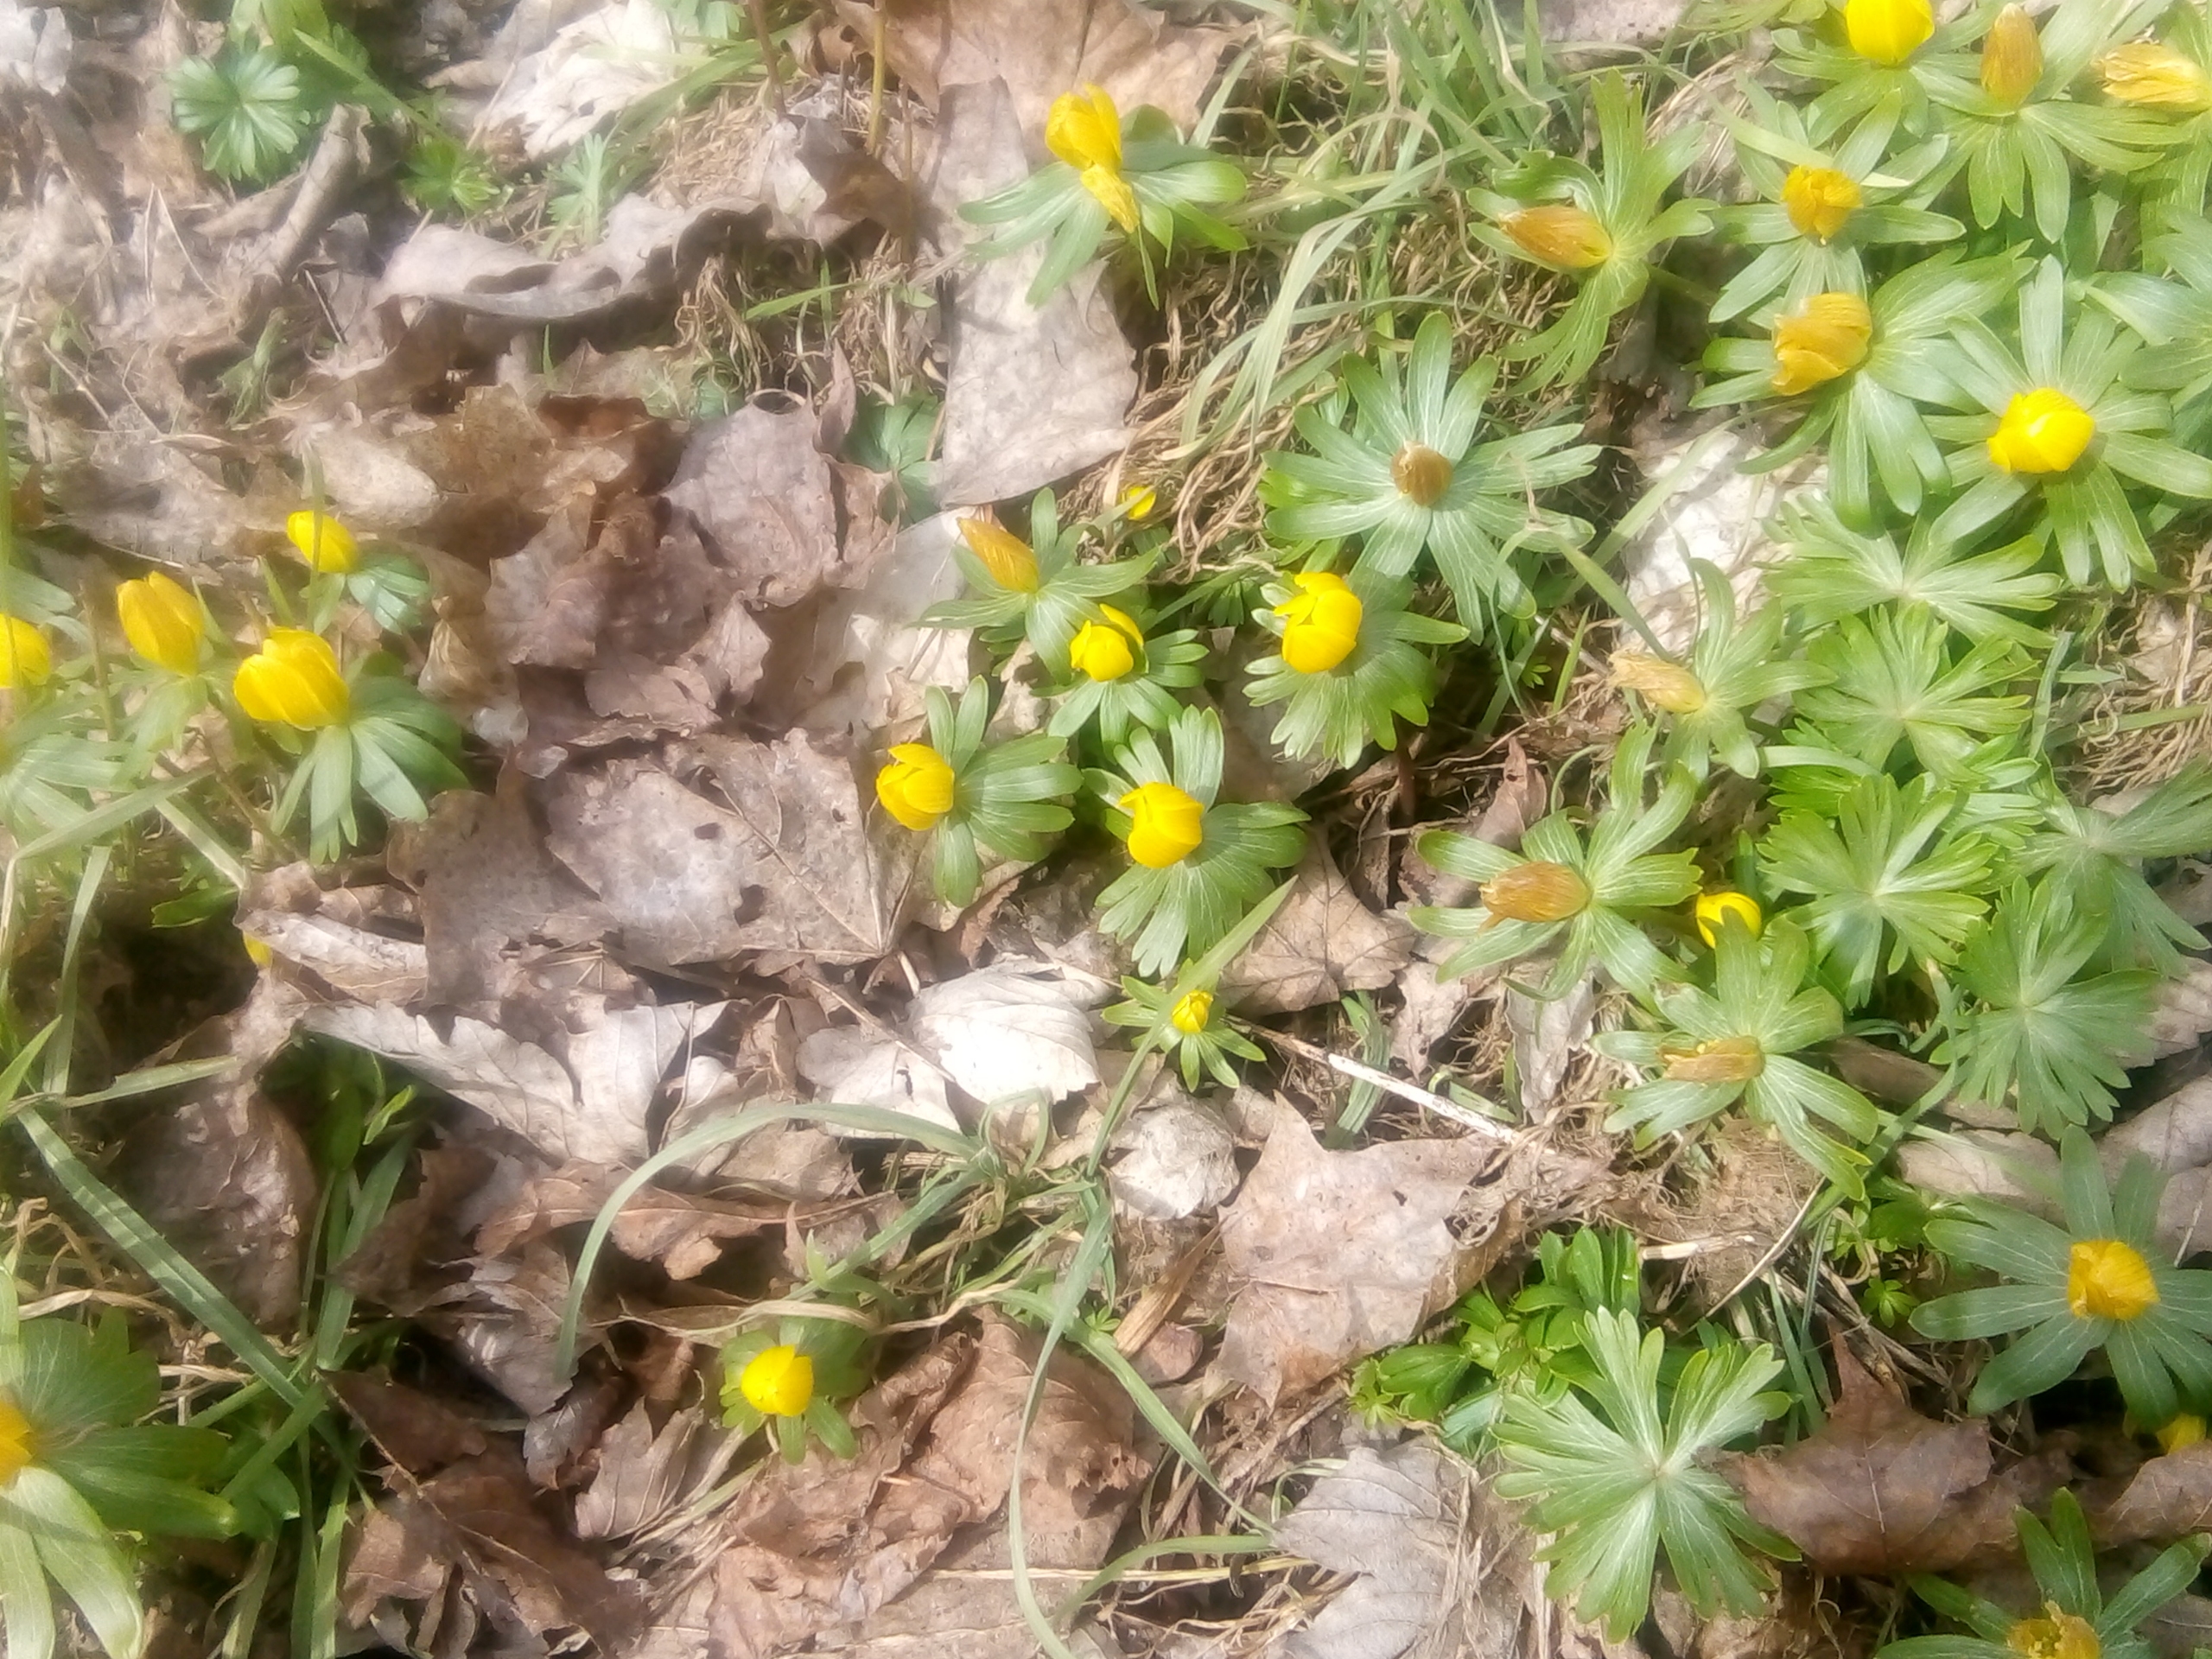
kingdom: Plantae
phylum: Tracheophyta
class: Magnoliopsida
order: Ranunculales
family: Ranunculaceae
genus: Eranthis
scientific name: Eranthis hyemalis
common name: Erantis
